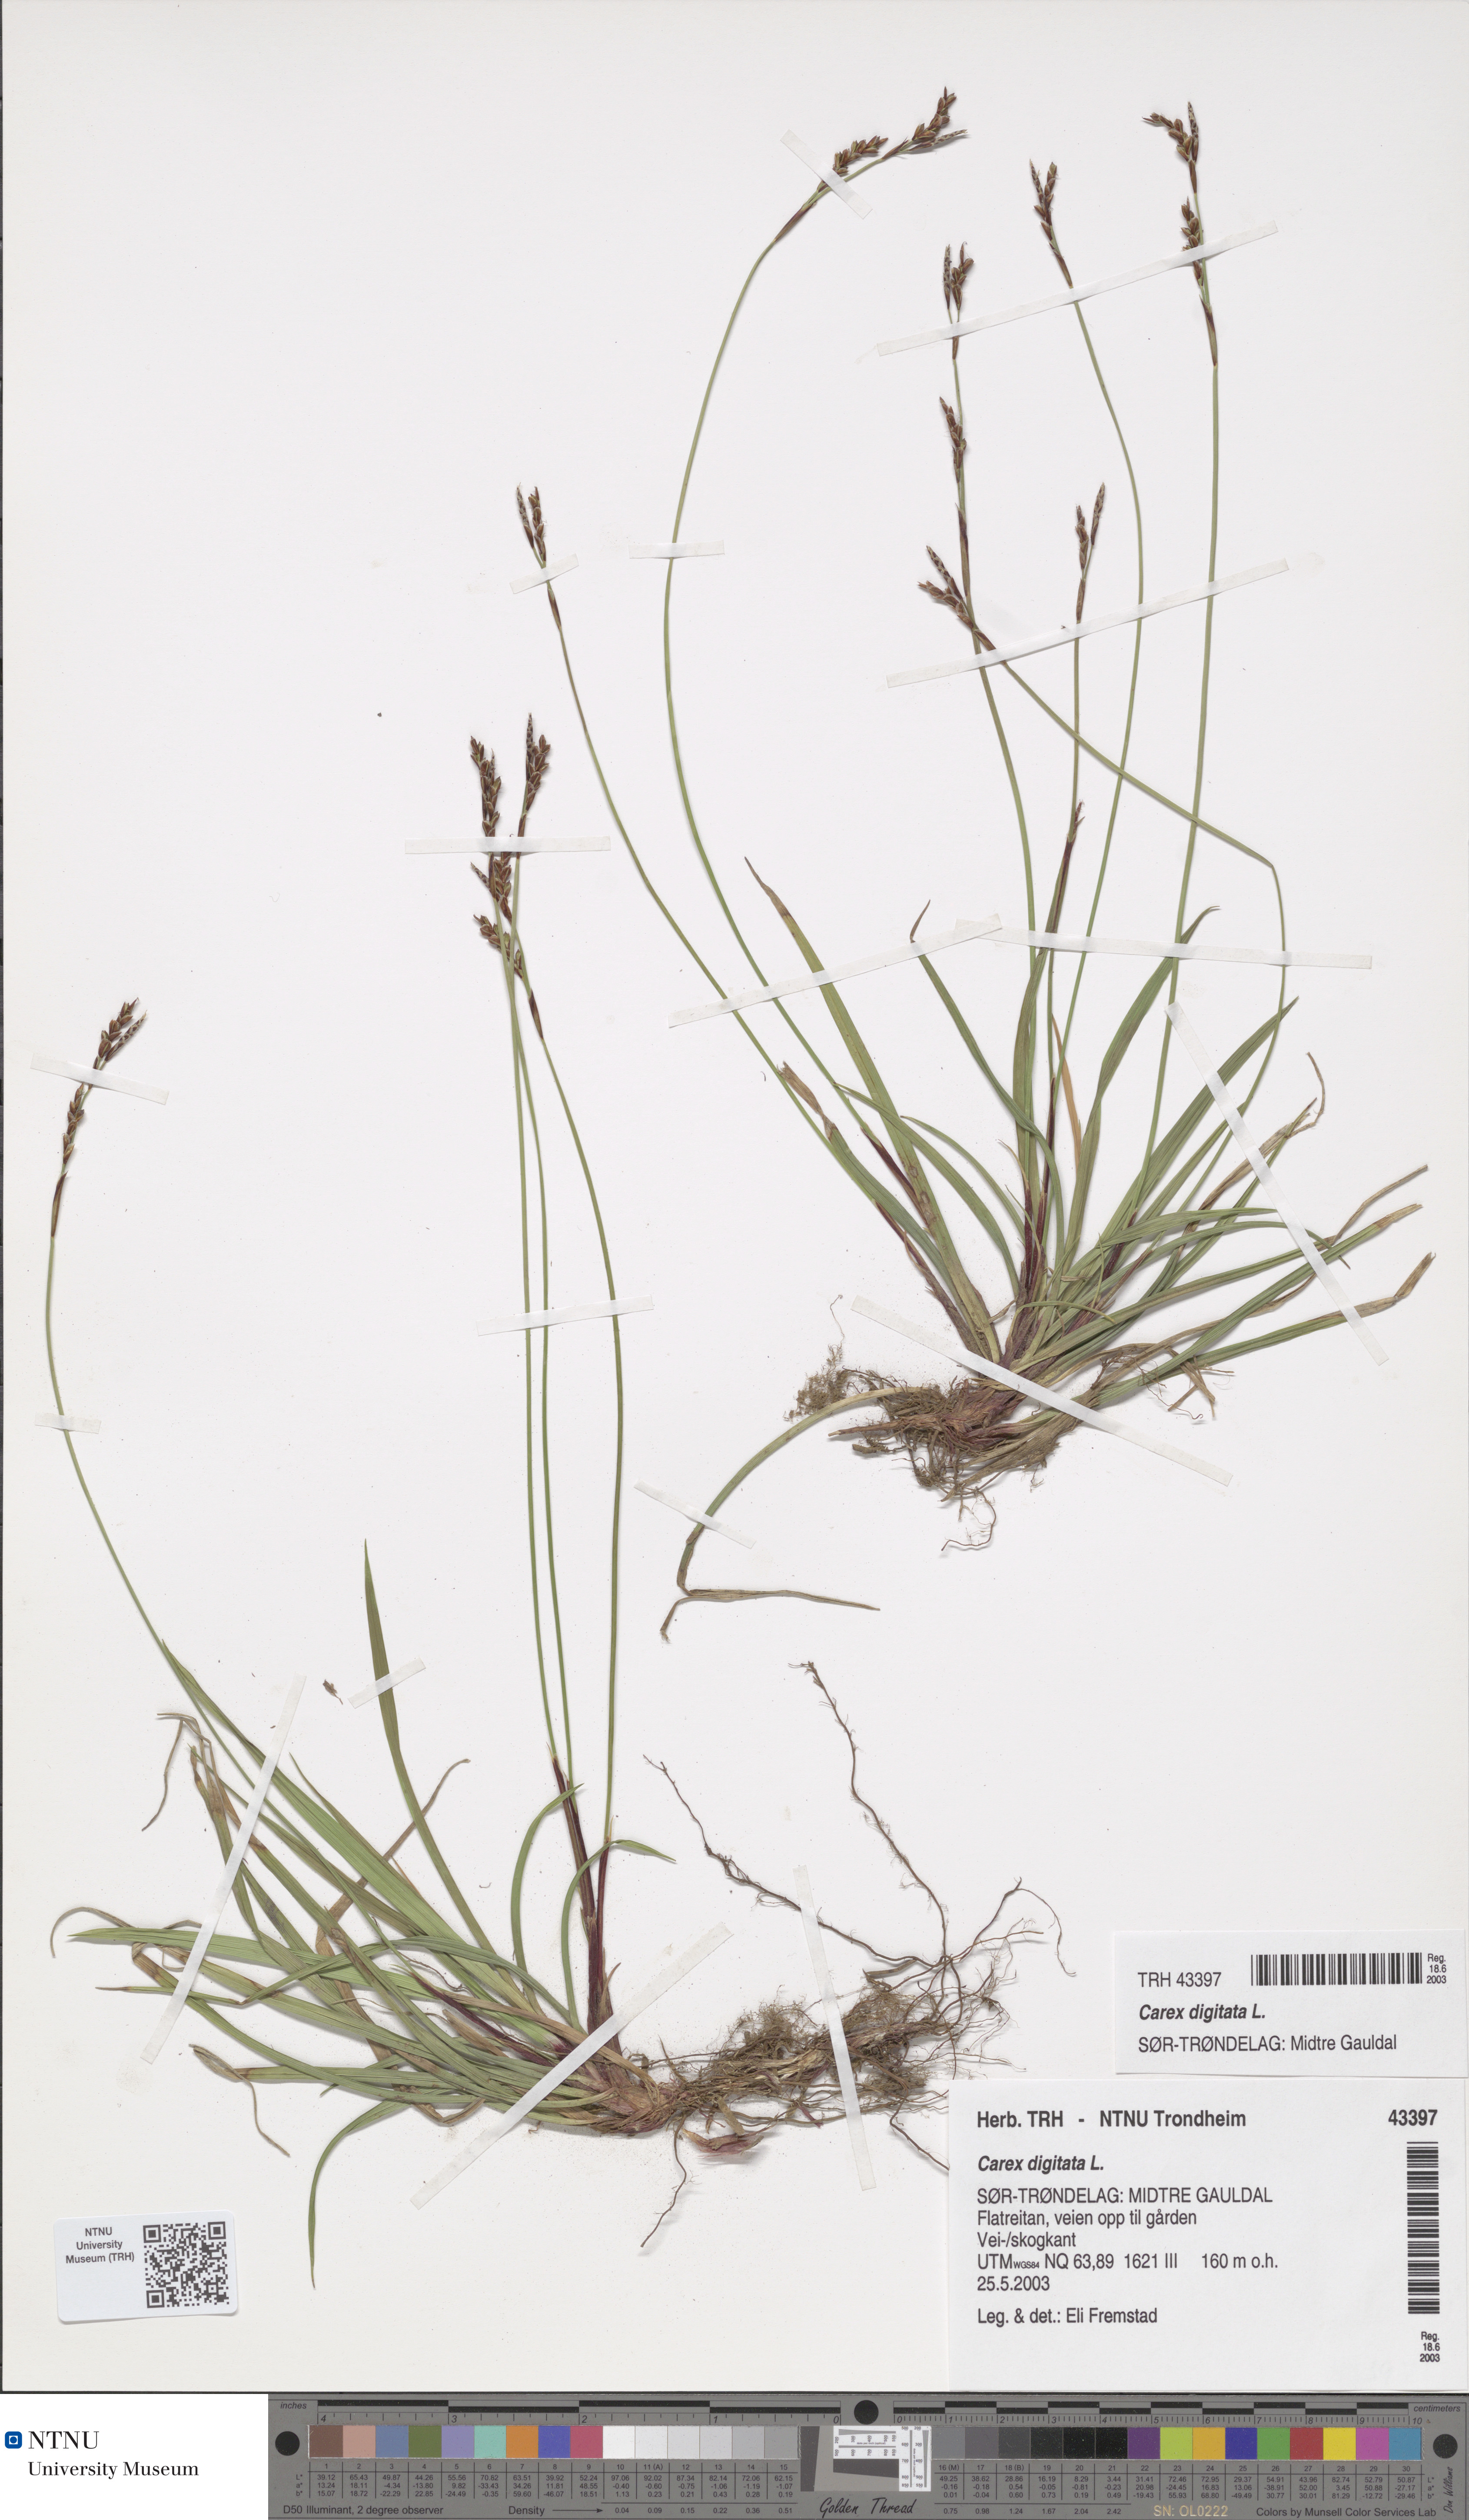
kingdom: Plantae
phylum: Tracheophyta
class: Liliopsida
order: Poales
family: Cyperaceae
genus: Carex
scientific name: Carex digitata
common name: Fingered sedge
